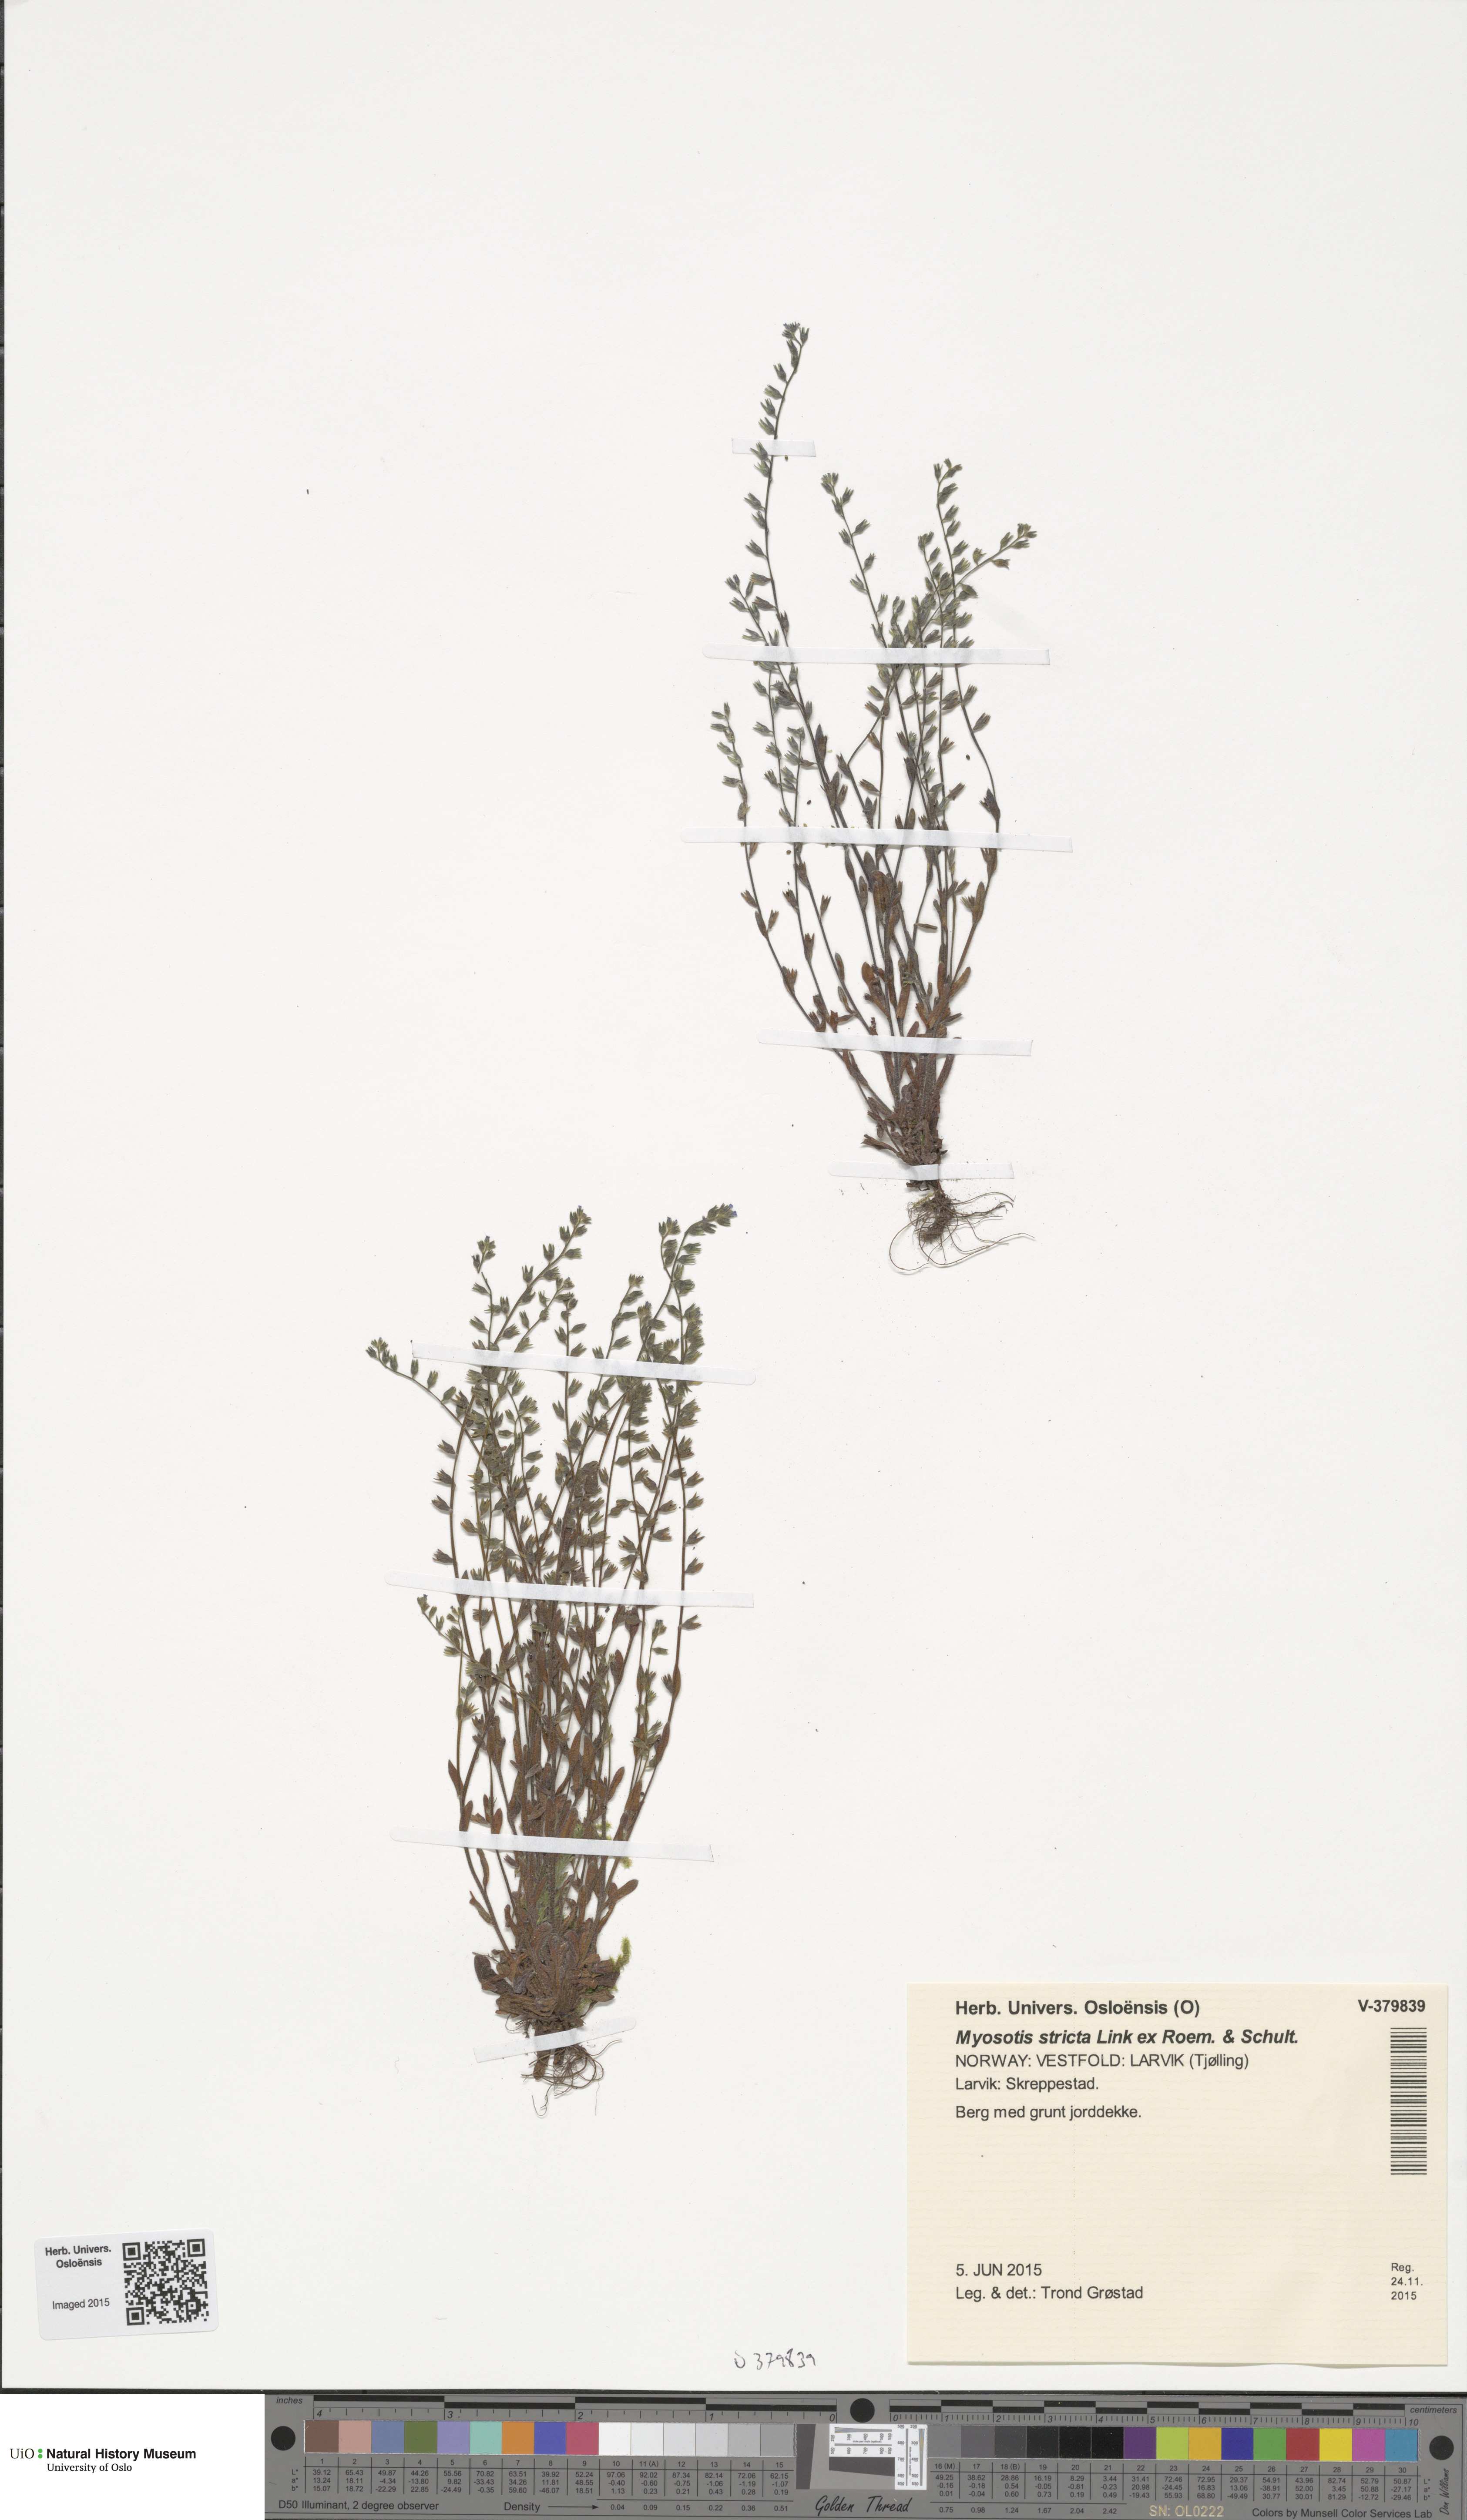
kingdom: Plantae
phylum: Tracheophyta
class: Magnoliopsida
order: Boraginales
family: Boraginaceae
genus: Myosotis
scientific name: Myosotis stricta
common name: Strict forget-me-not
